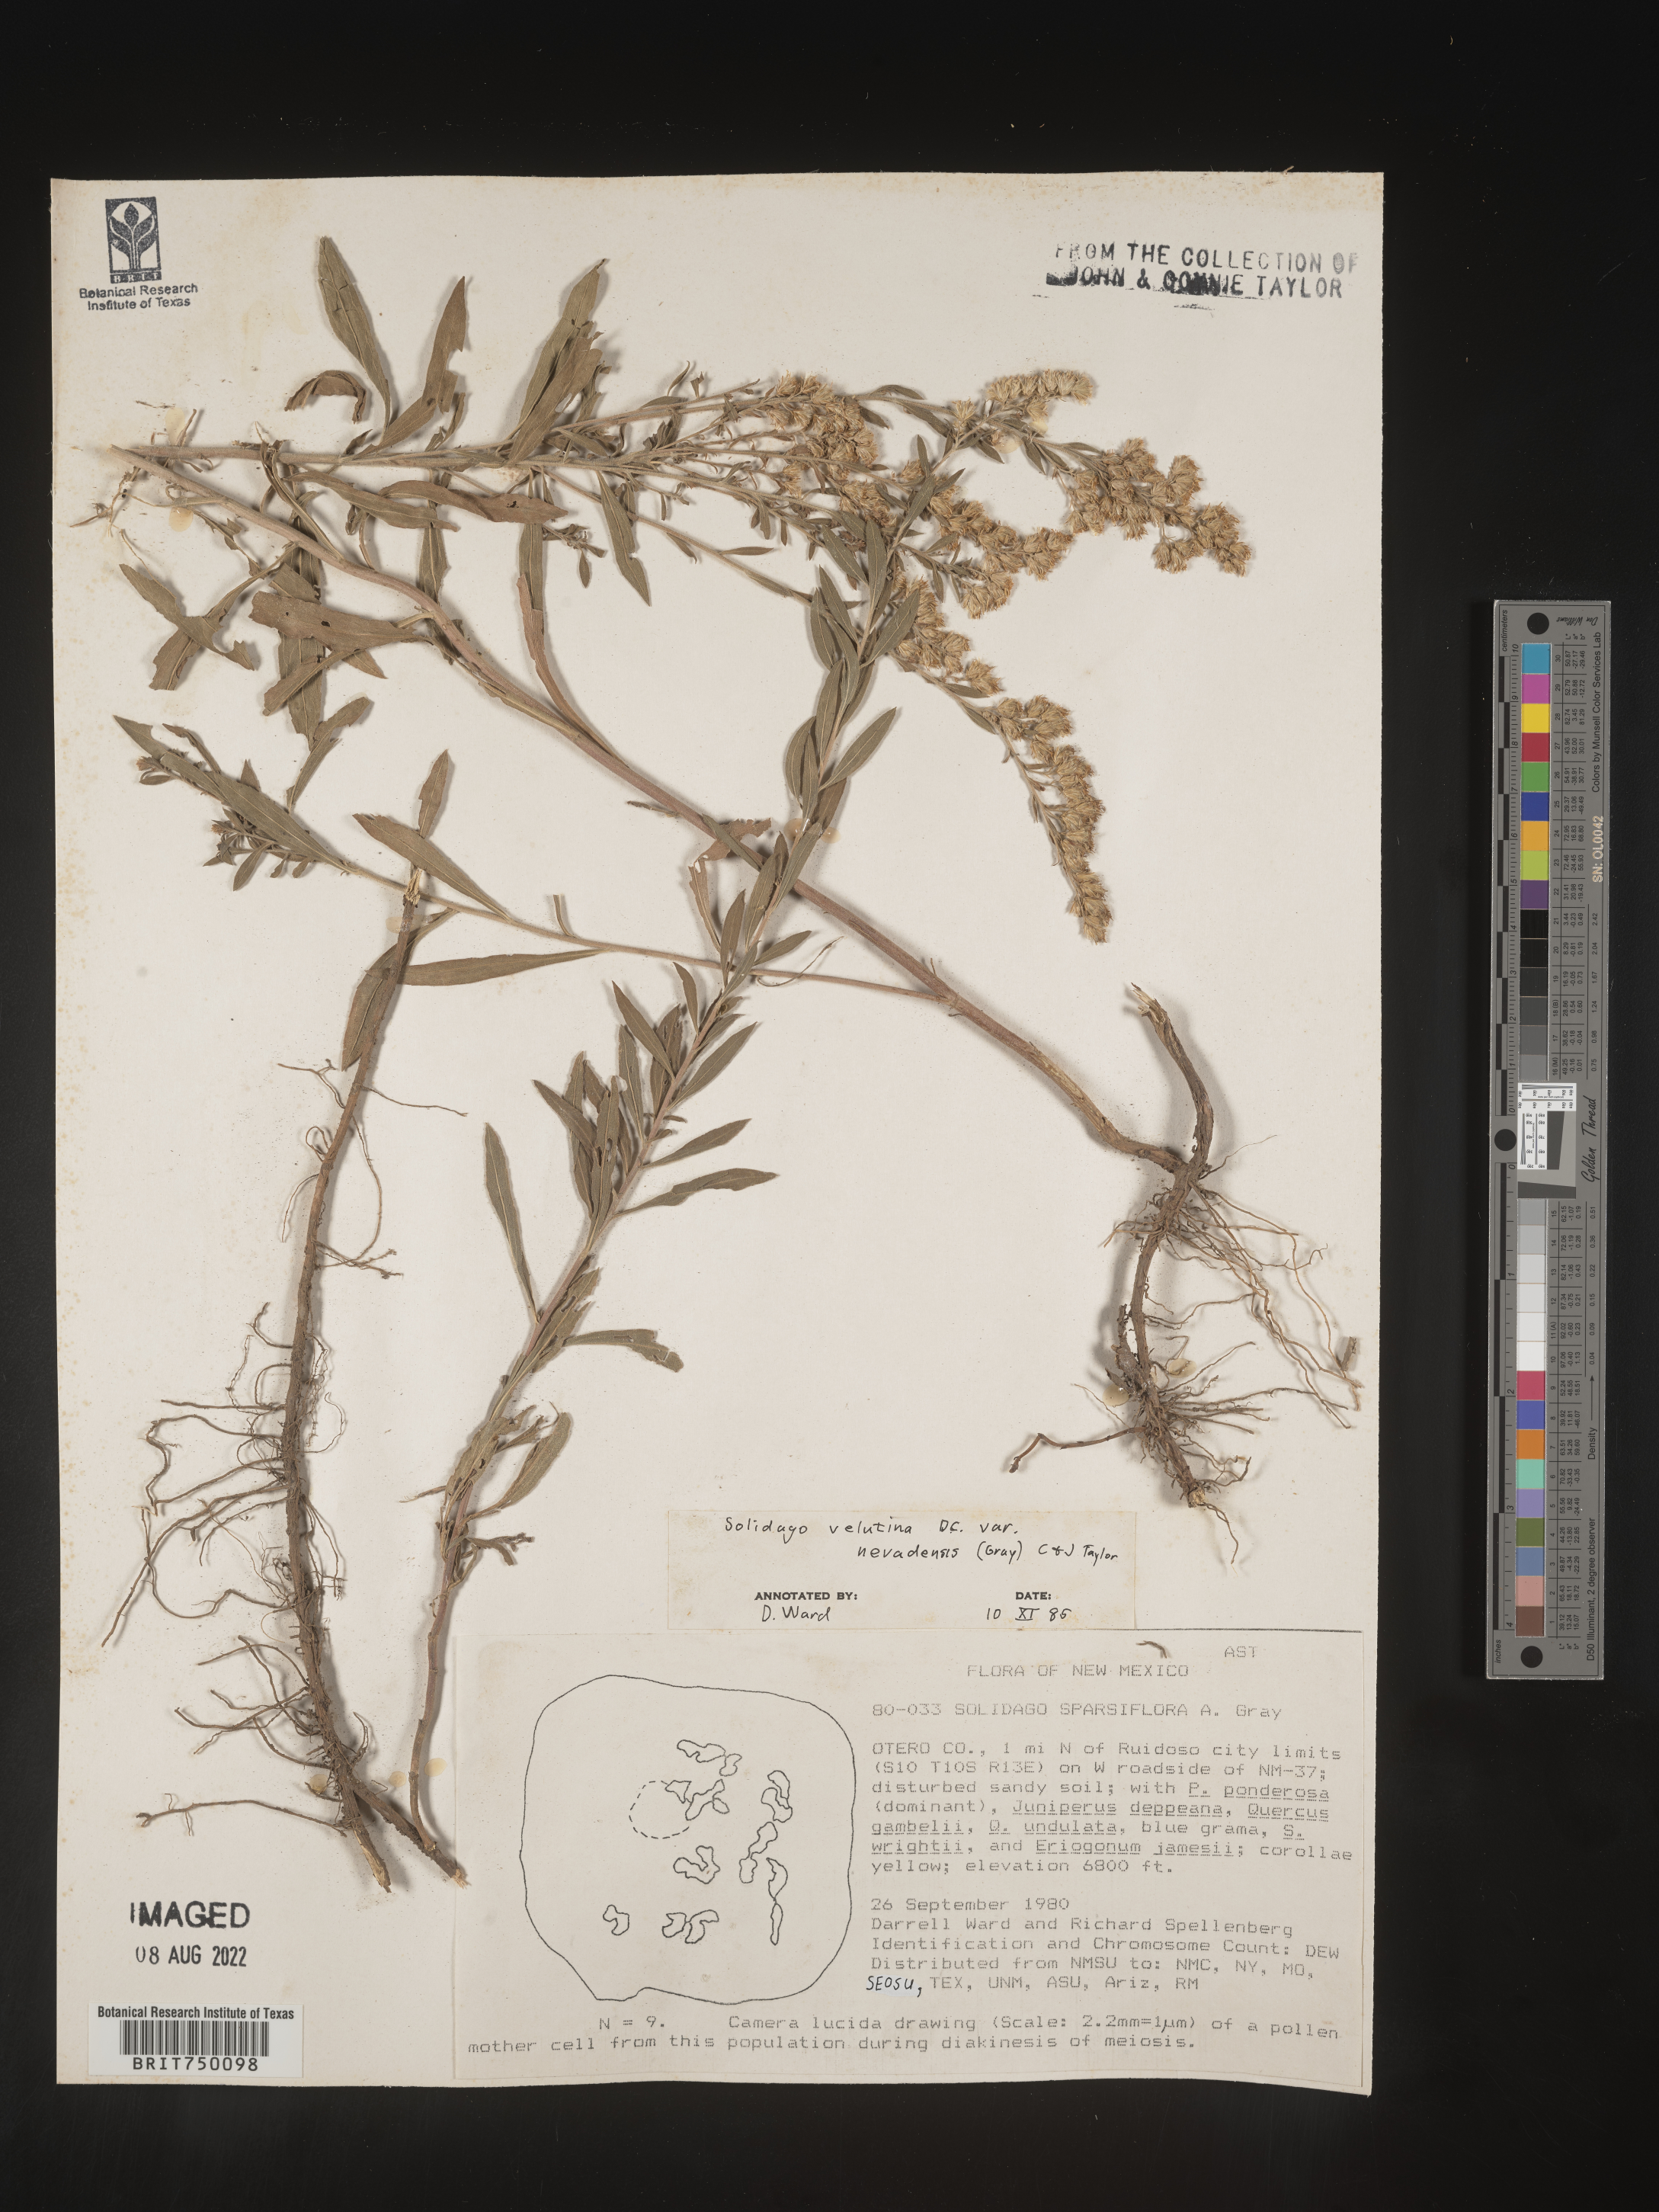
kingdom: Plantae
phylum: Tracheophyta
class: Magnoliopsida
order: Asterales
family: Asteraceae
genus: Solidago
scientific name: Solidago velutina
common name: Three-nerve goldenrod
